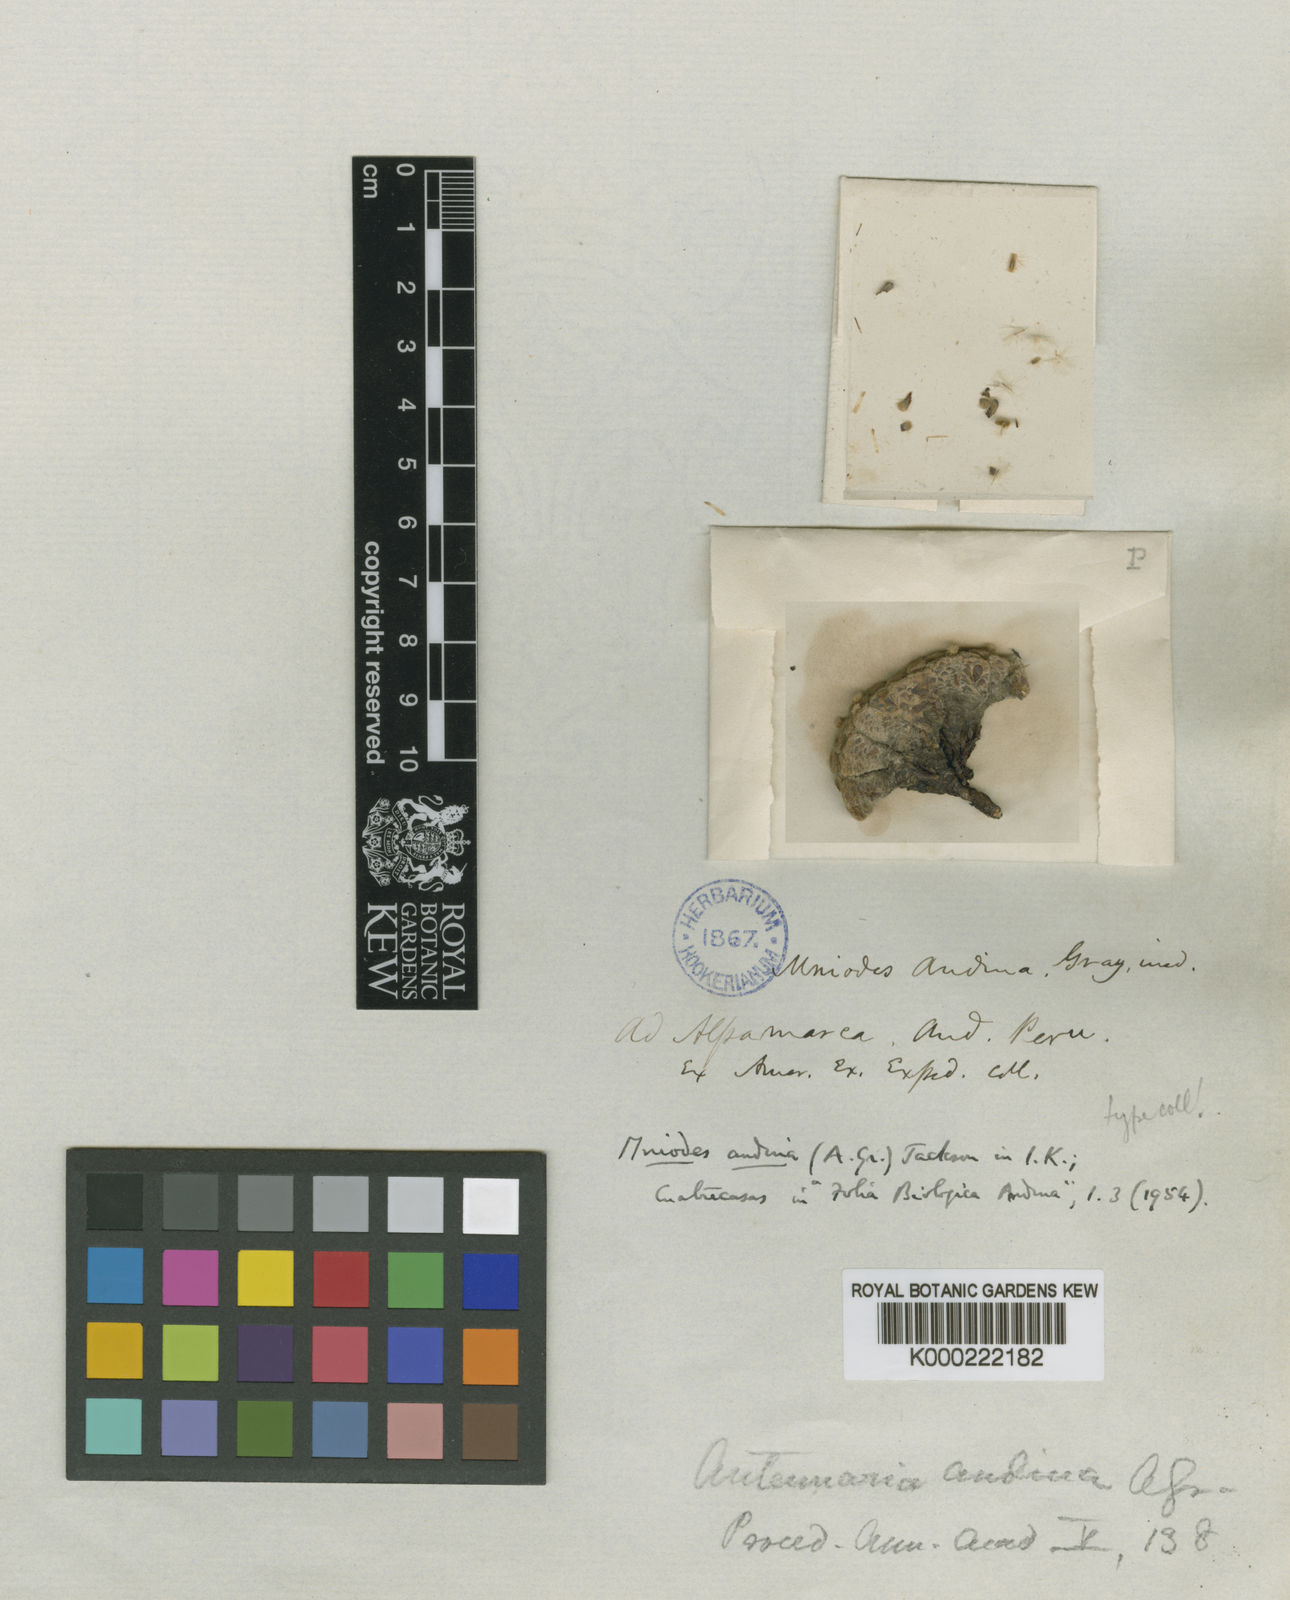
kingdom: Plantae
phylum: Tracheophyta
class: Magnoliopsida
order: Asterales
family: Asteraceae
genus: Mniodes
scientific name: Mniodes
